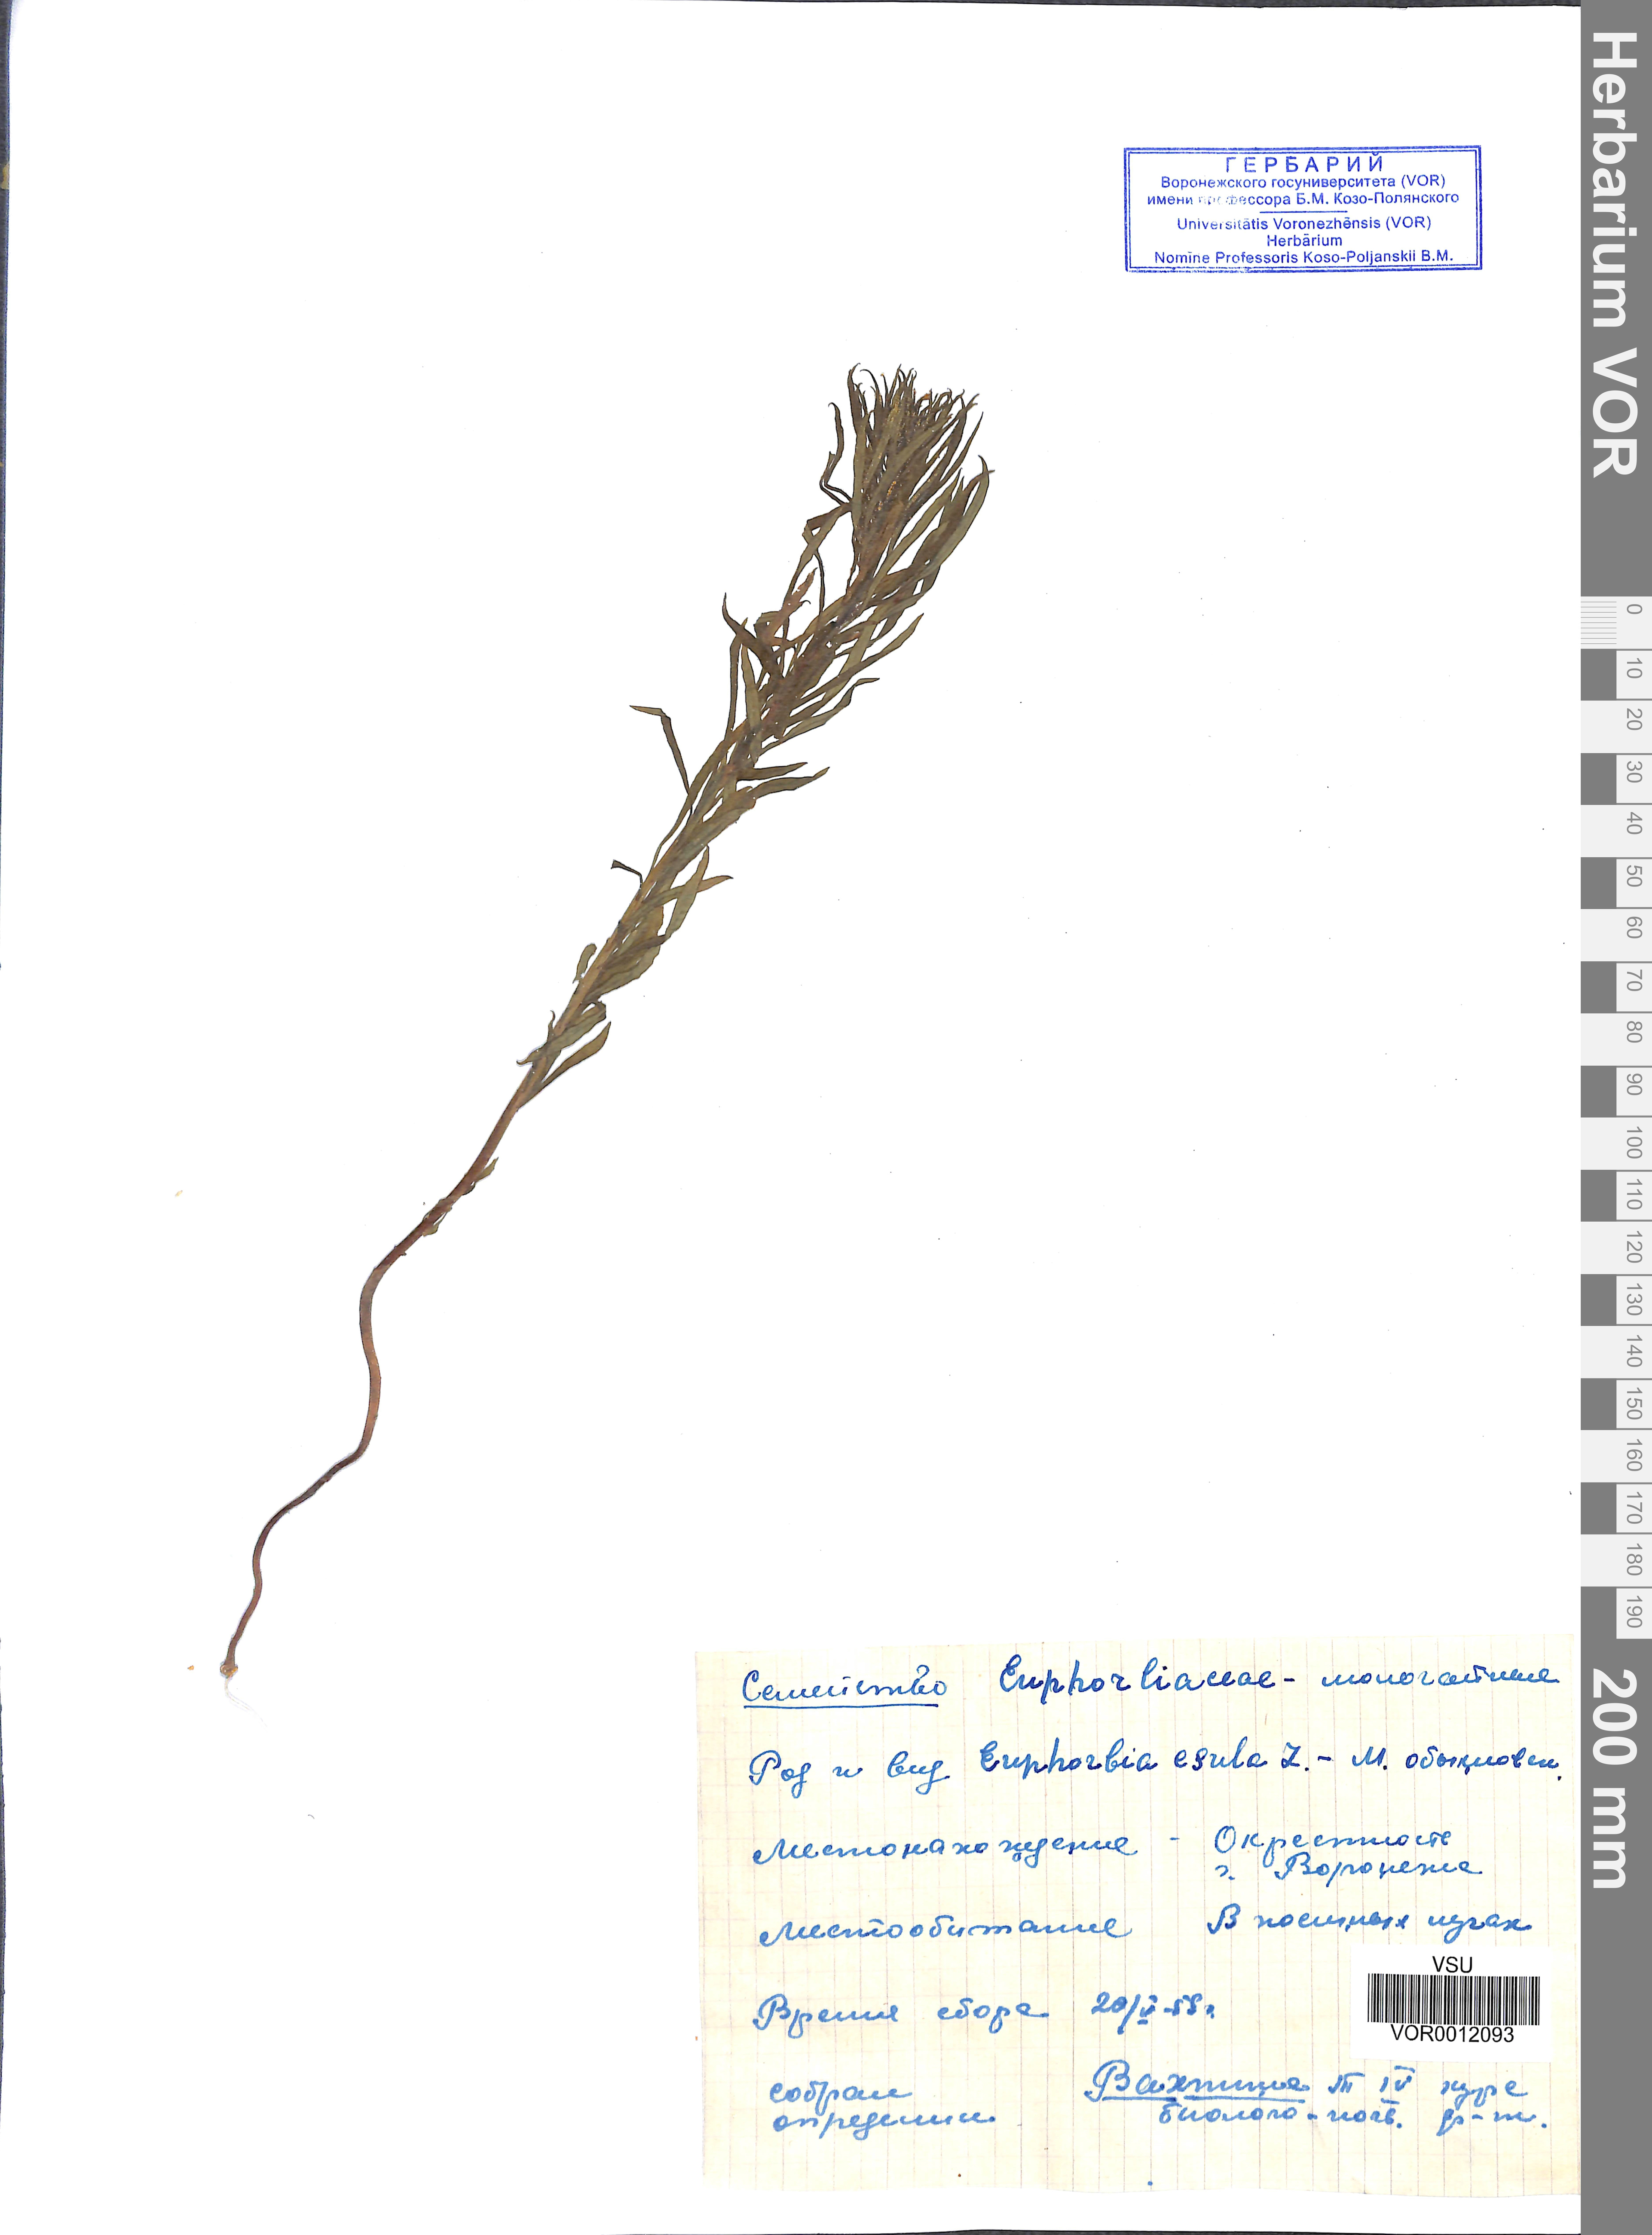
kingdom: Plantae
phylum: Tracheophyta
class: Magnoliopsida
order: Malpighiales
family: Euphorbiaceae
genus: Euphorbia
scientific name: Euphorbia esula
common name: Leafy spurge
